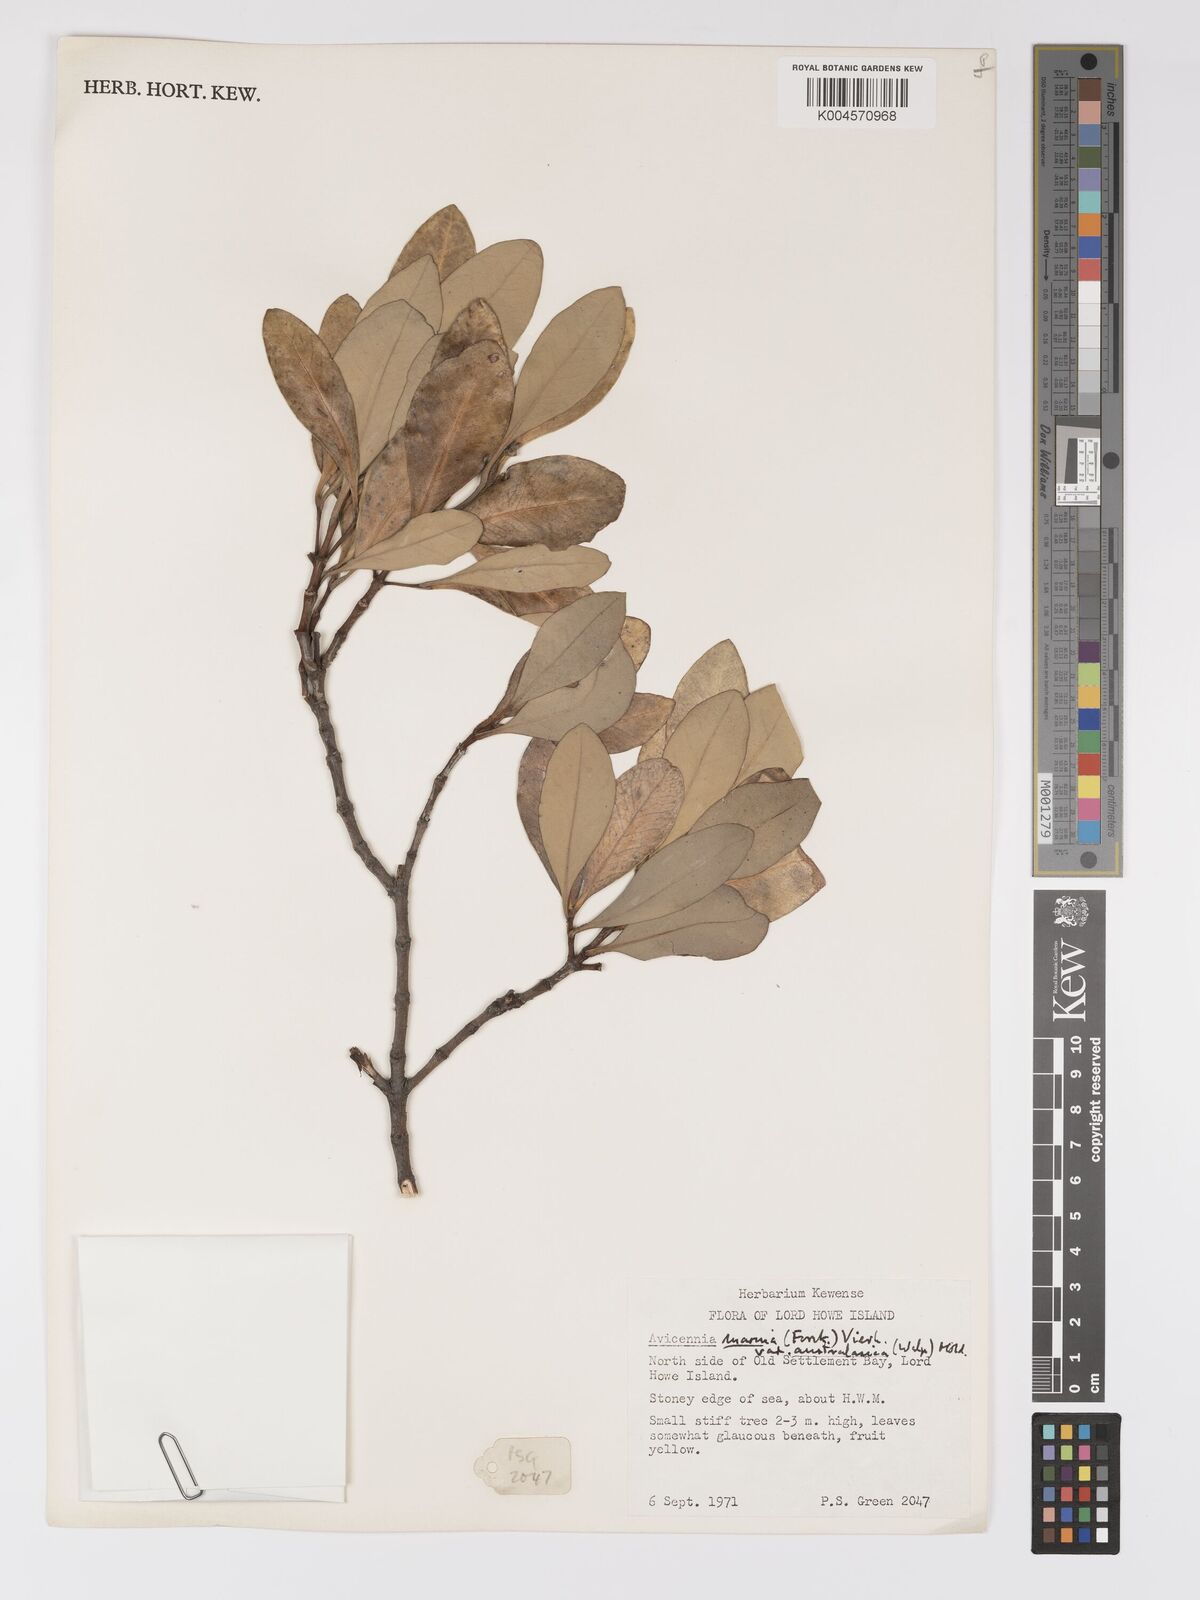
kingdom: Plantae
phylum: Tracheophyta
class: Magnoliopsida
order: Lamiales
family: Acanthaceae
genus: Avicennia
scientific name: Avicennia
